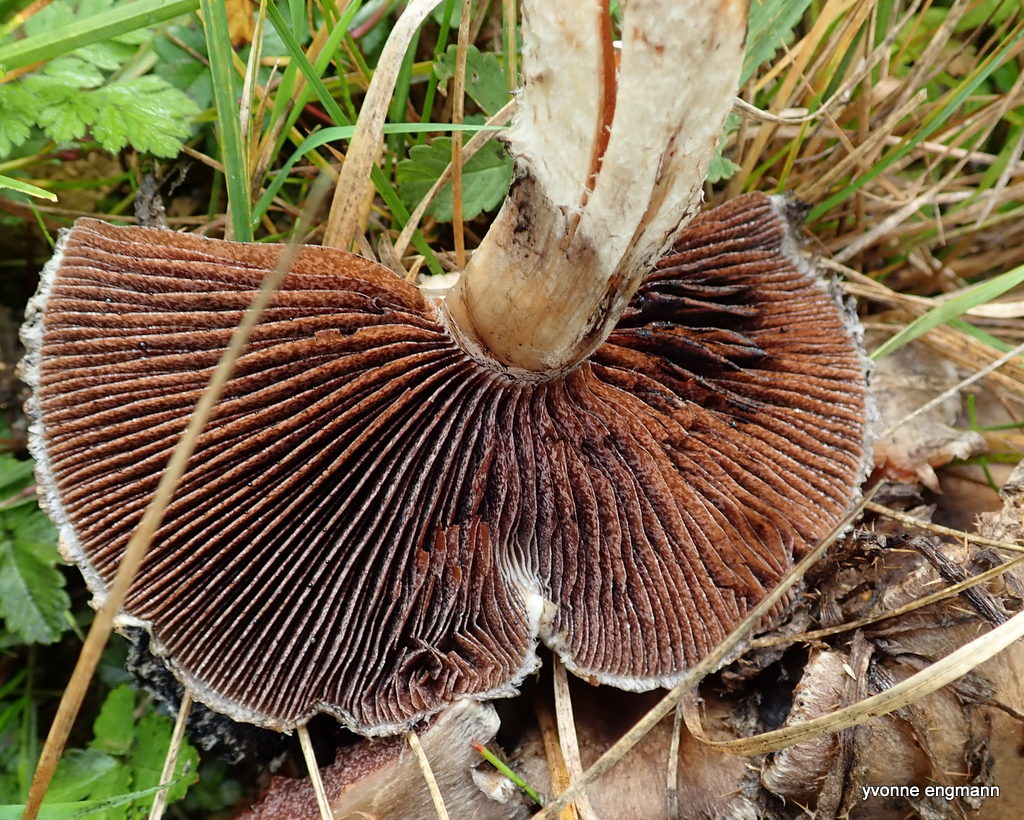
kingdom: Fungi
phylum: Basidiomycota
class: Agaricomycetes
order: Agaricales
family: Psathyrellaceae
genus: Lacrymaria
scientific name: Lacrymaria lacrymabunda
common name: grædende mørkhat
